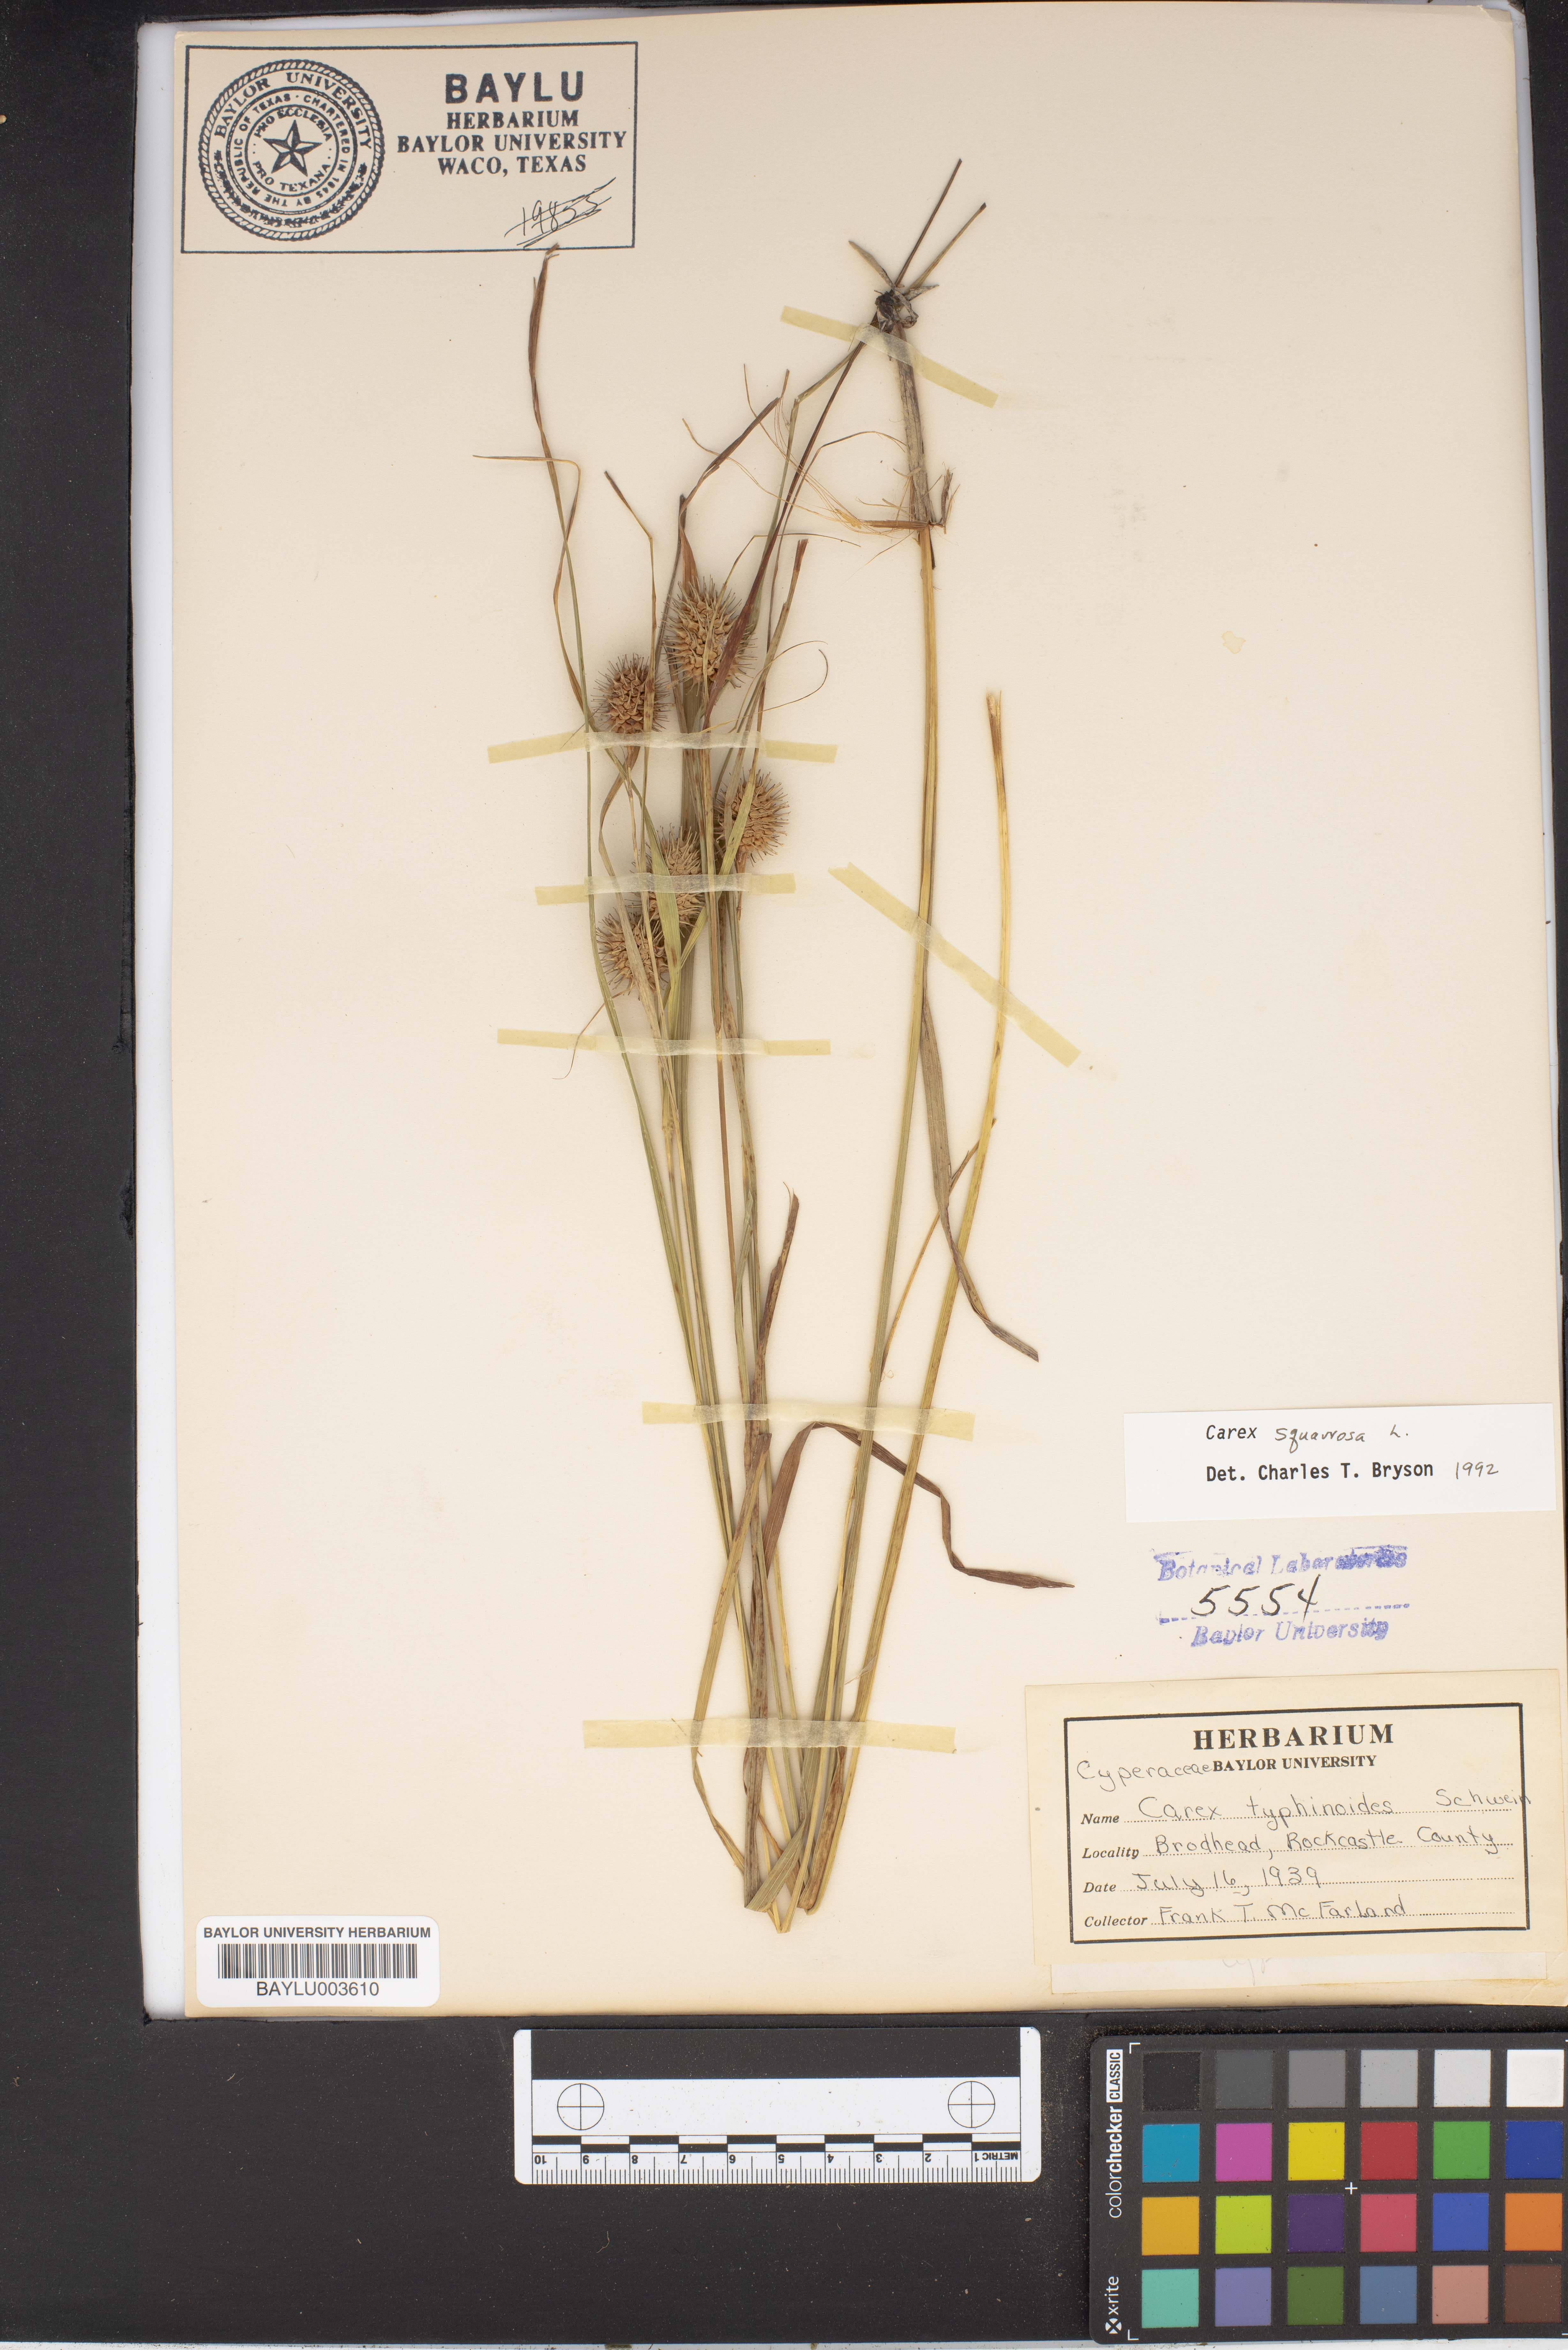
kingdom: Plantae
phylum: Tracheophyta
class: Liliopsida
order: Poales
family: Cyperaceae
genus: Carex
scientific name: Carex squarrosa
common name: Narrow-leaved cattail sedge
